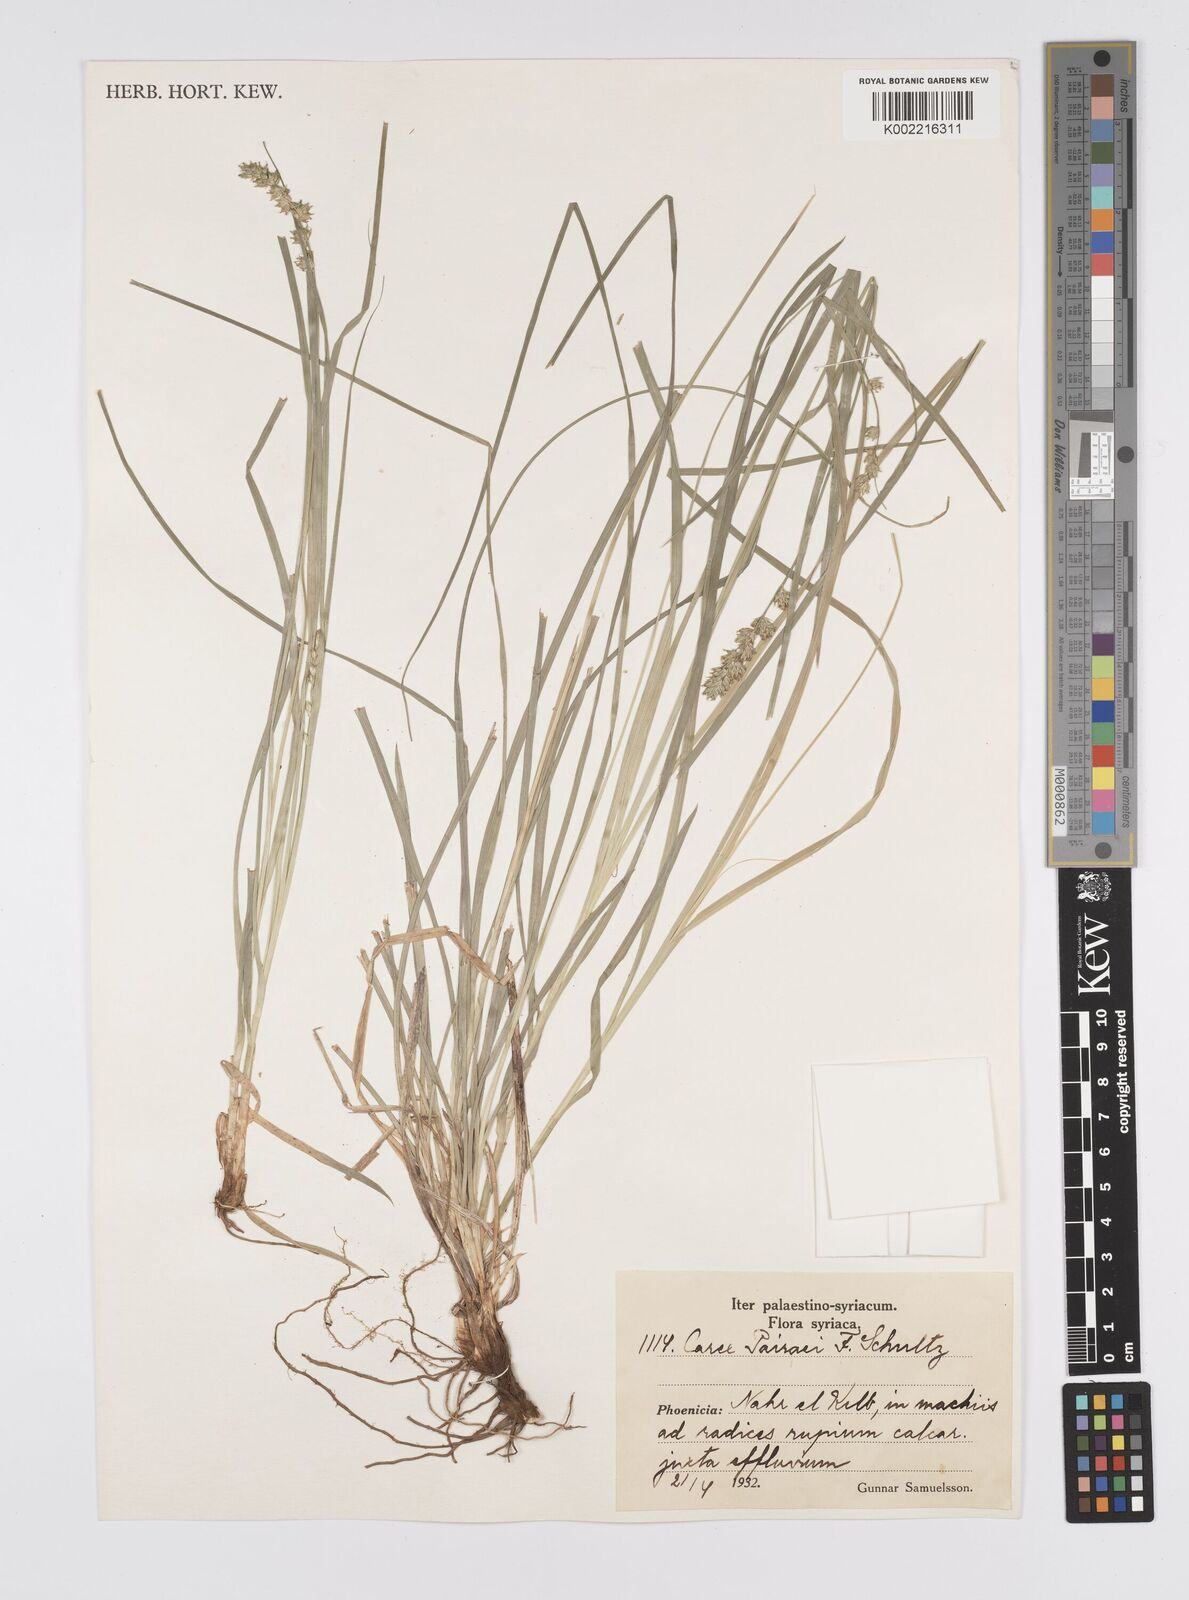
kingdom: Plantae
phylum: Tracheophyta
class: Liliopsida
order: Poales
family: Cyperaceae
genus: Carex
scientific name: Carex coriogyne
